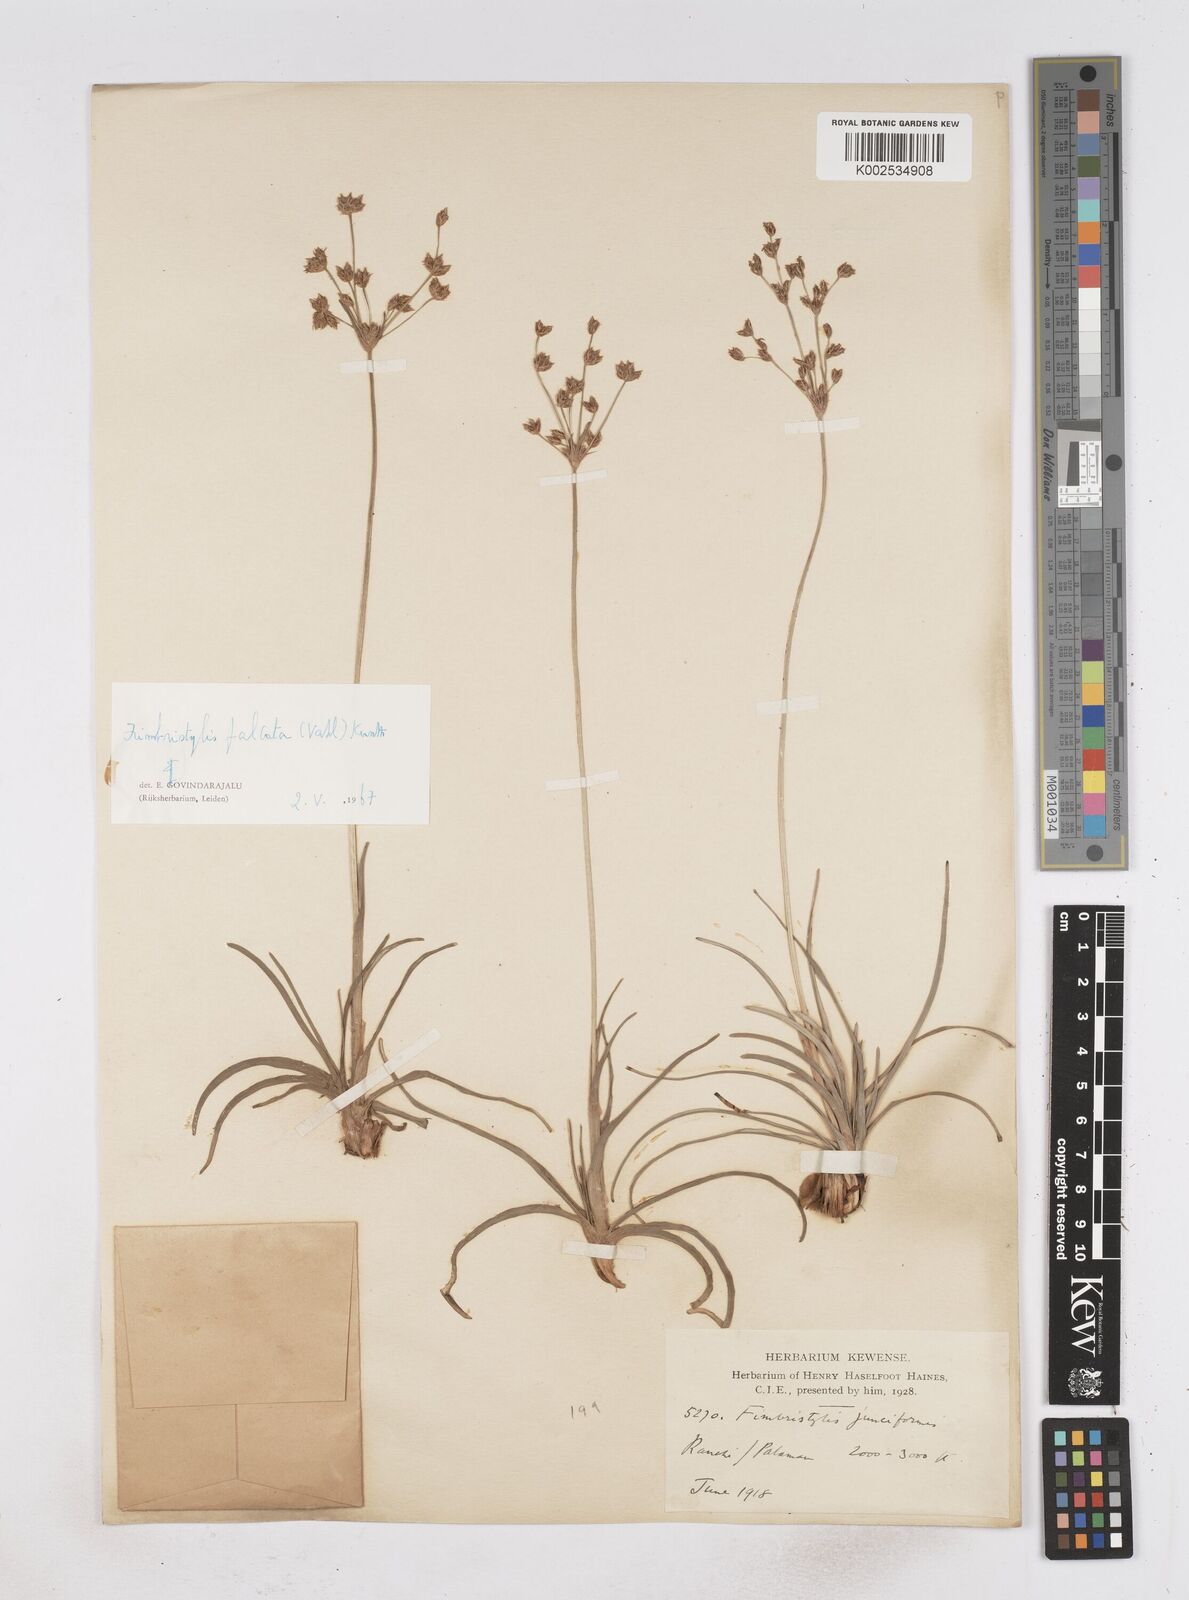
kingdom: Plantae
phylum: Tracheophyta
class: Liliopsida
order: Poales
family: Cyperaceae
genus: Fimbristylis
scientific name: Fimbristylis falcata
